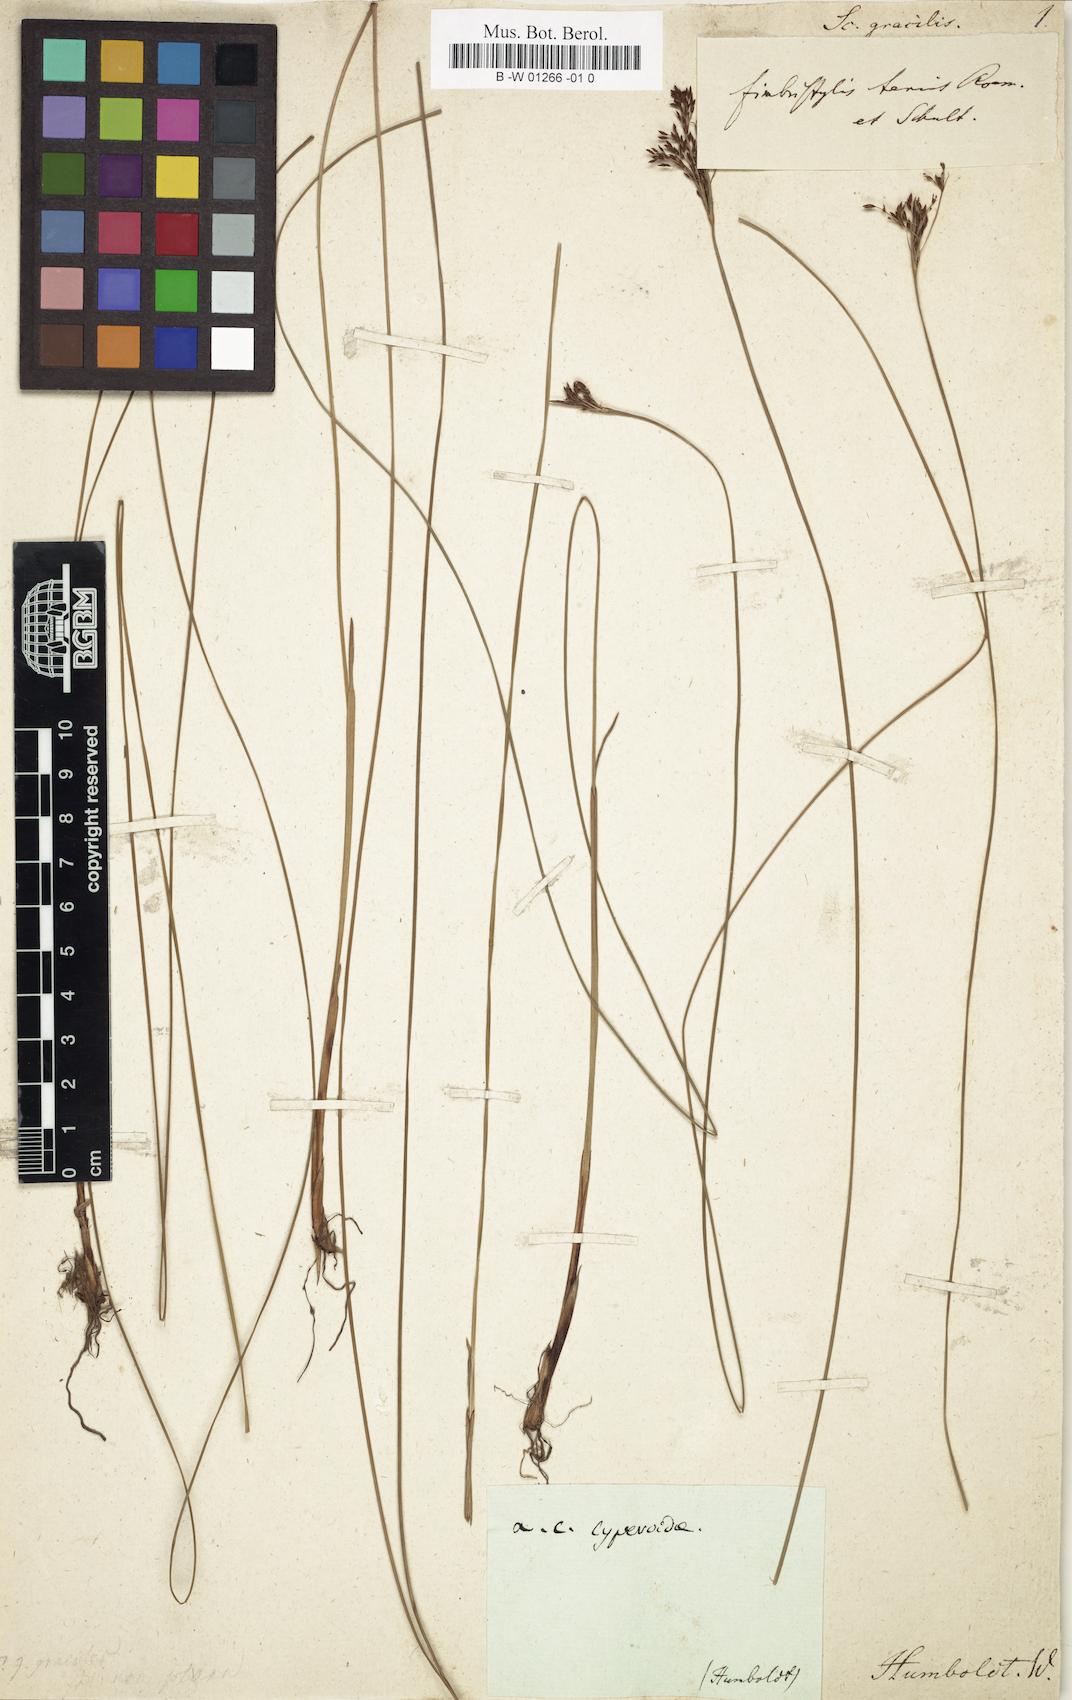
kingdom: Plantae
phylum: Tracheophyta
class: Liliopsida
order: Poales
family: Cyperaceae
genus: Fimbristylis
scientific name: Fimbristylis autumnalis
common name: Slender fimbristylis
